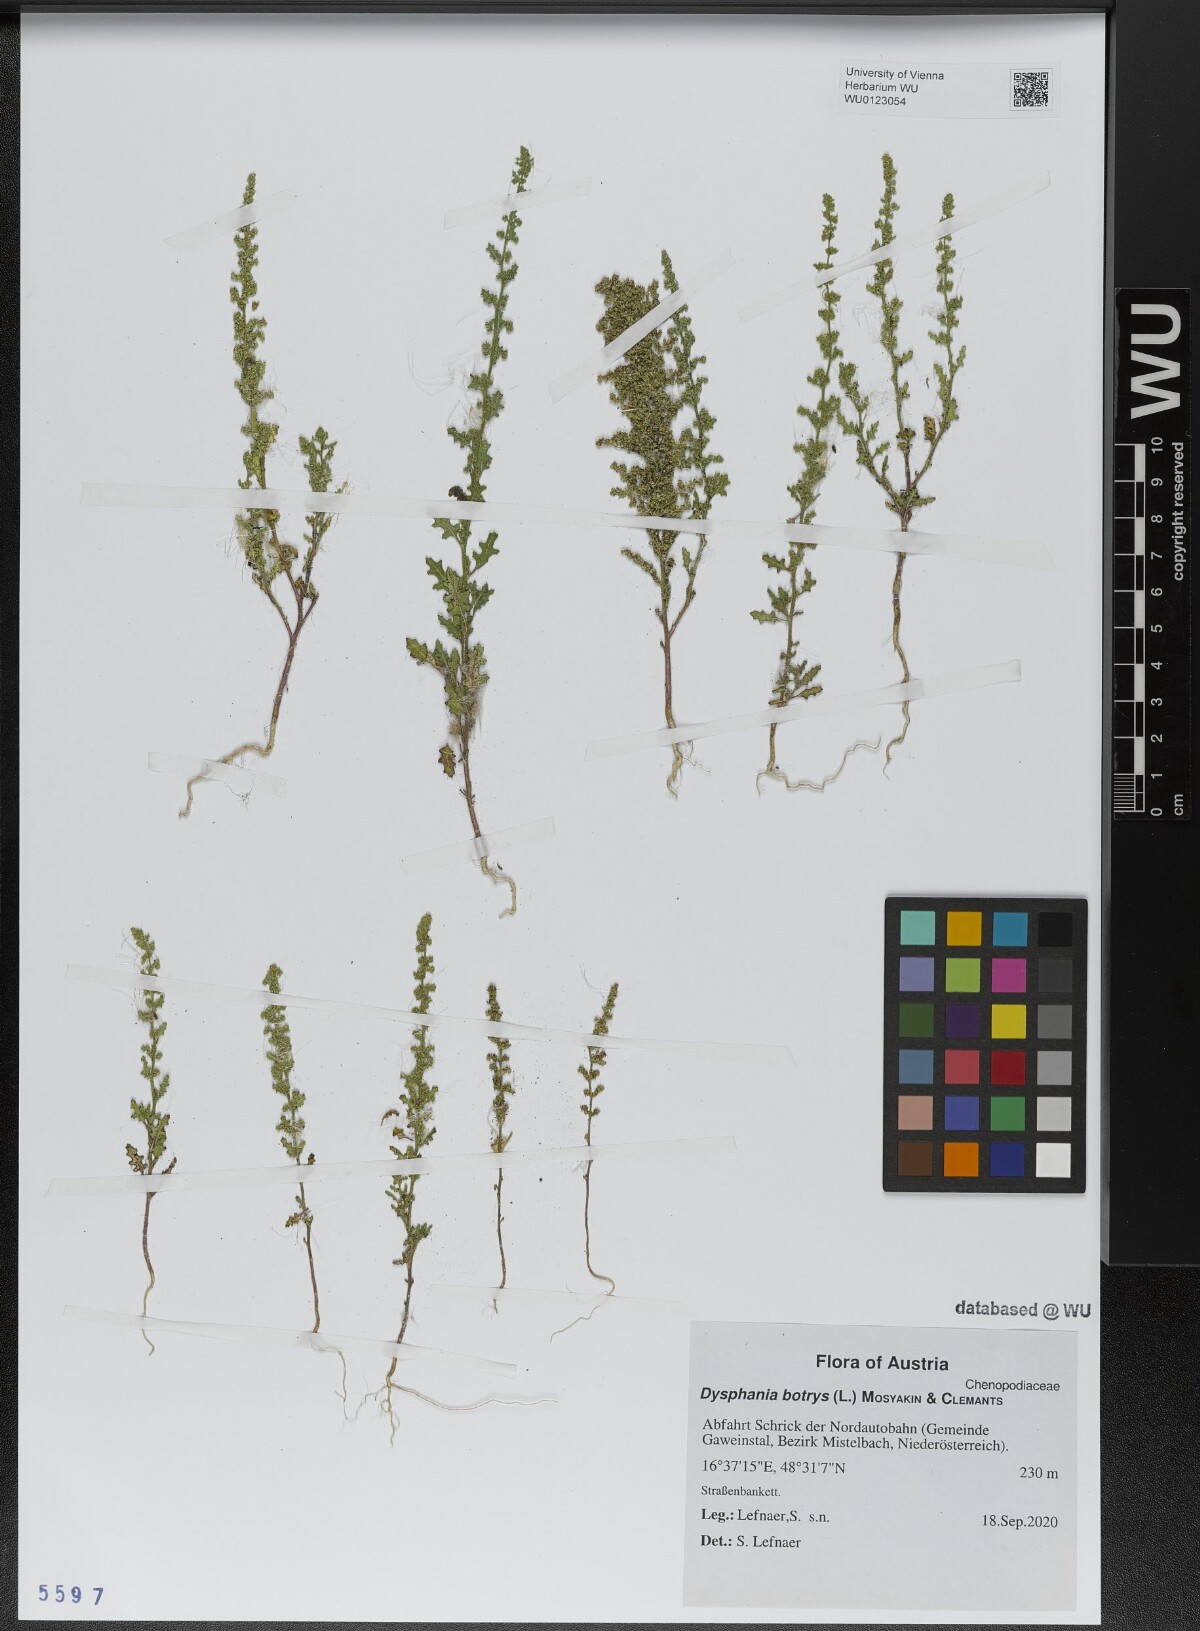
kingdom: Plantae
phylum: Tracheophyta
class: Magnoliopsida
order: Caryophyllales
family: Amaranthaceae
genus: Dysphania
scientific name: Dysphania botrys
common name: Feather-geranium
